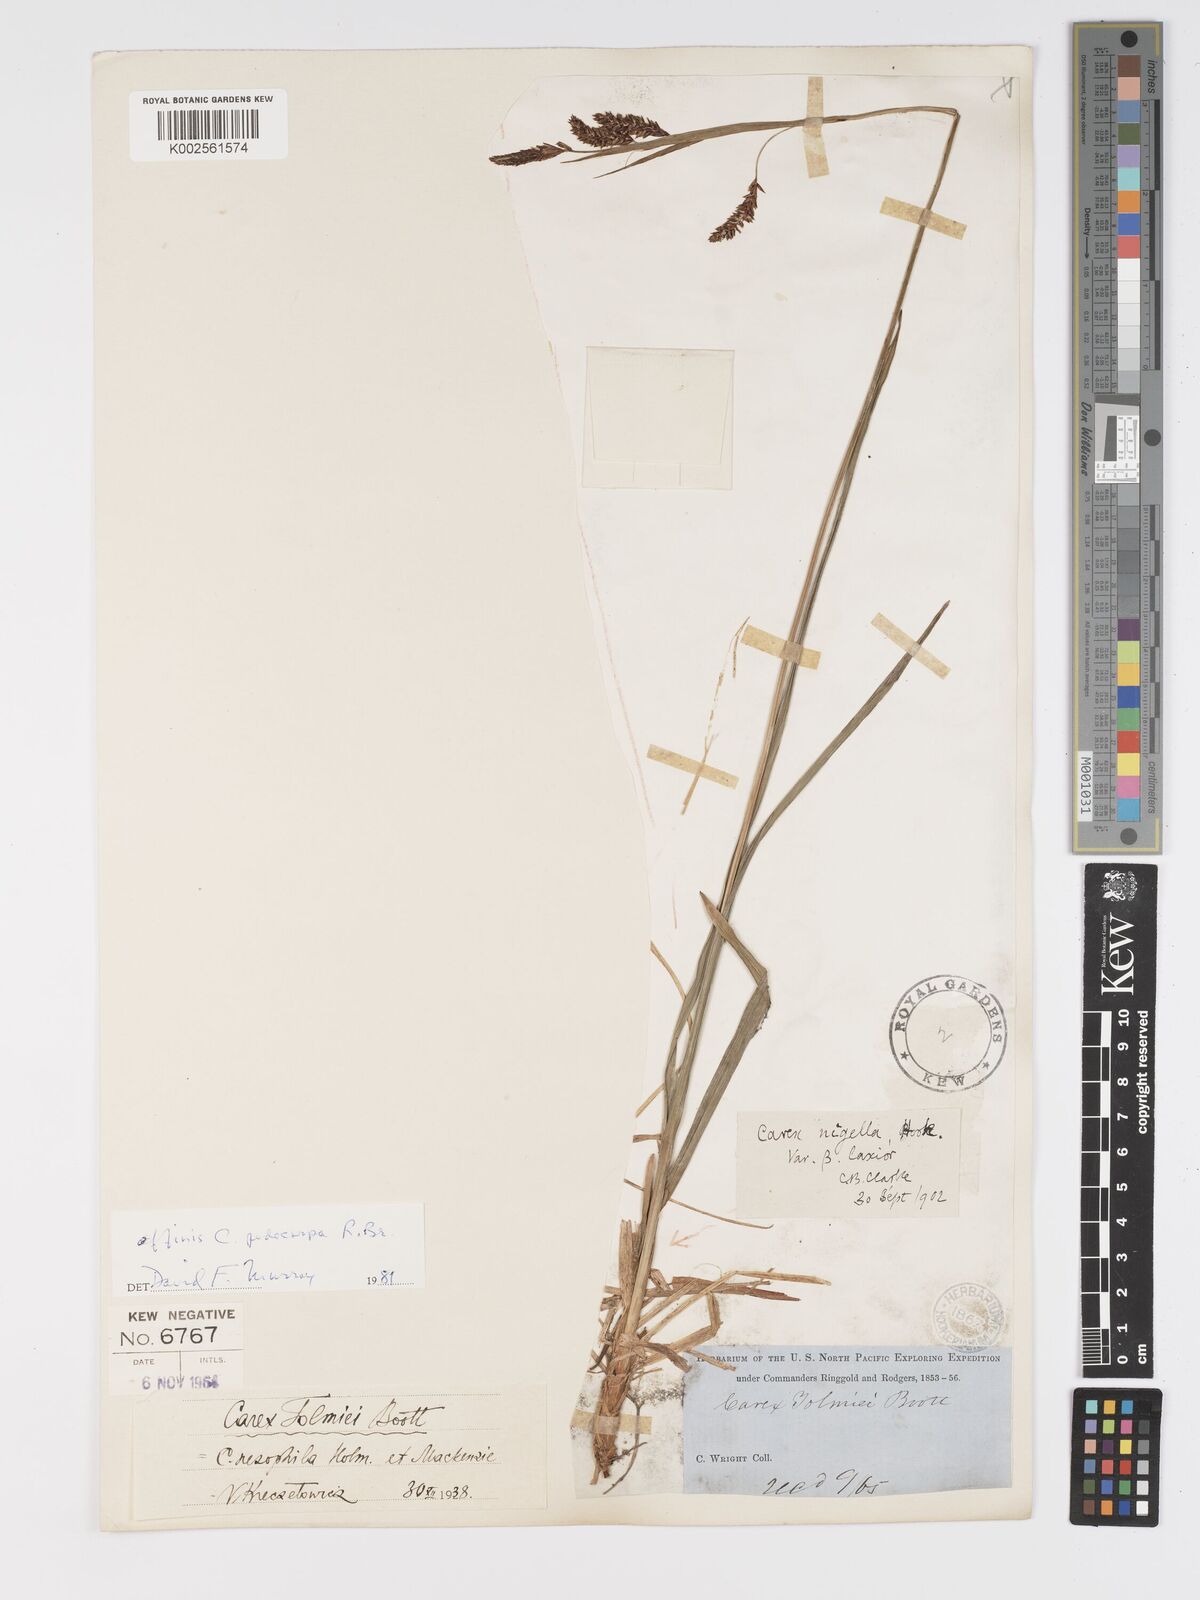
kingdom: Plantae
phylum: Tracheophyta
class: Liliopsida
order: Poales
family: Cyperaceae
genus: Carex
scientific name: Carex podocarpa
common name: Alpine sedge
